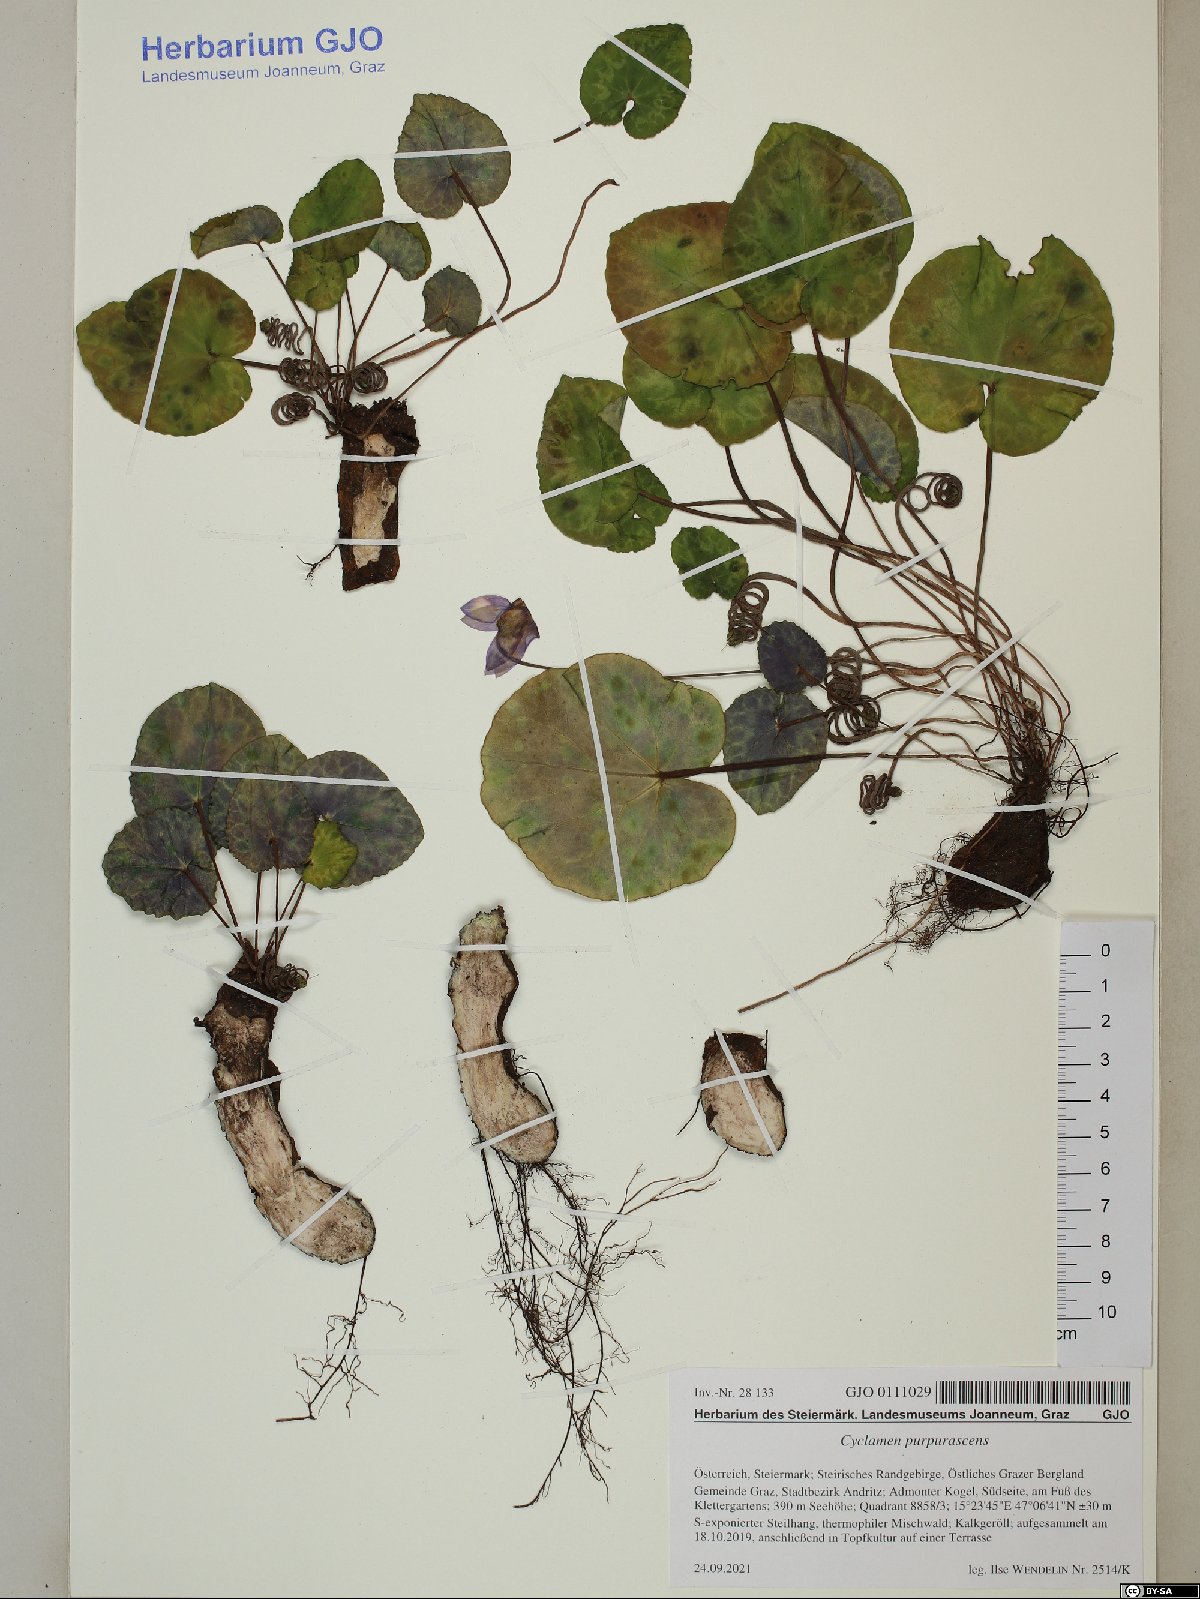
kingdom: Plantae
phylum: Tracheophyta
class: Magnoliopsida
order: Ericales
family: Primulaceae
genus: Cyclamen
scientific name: Cyclamen purpurascens
